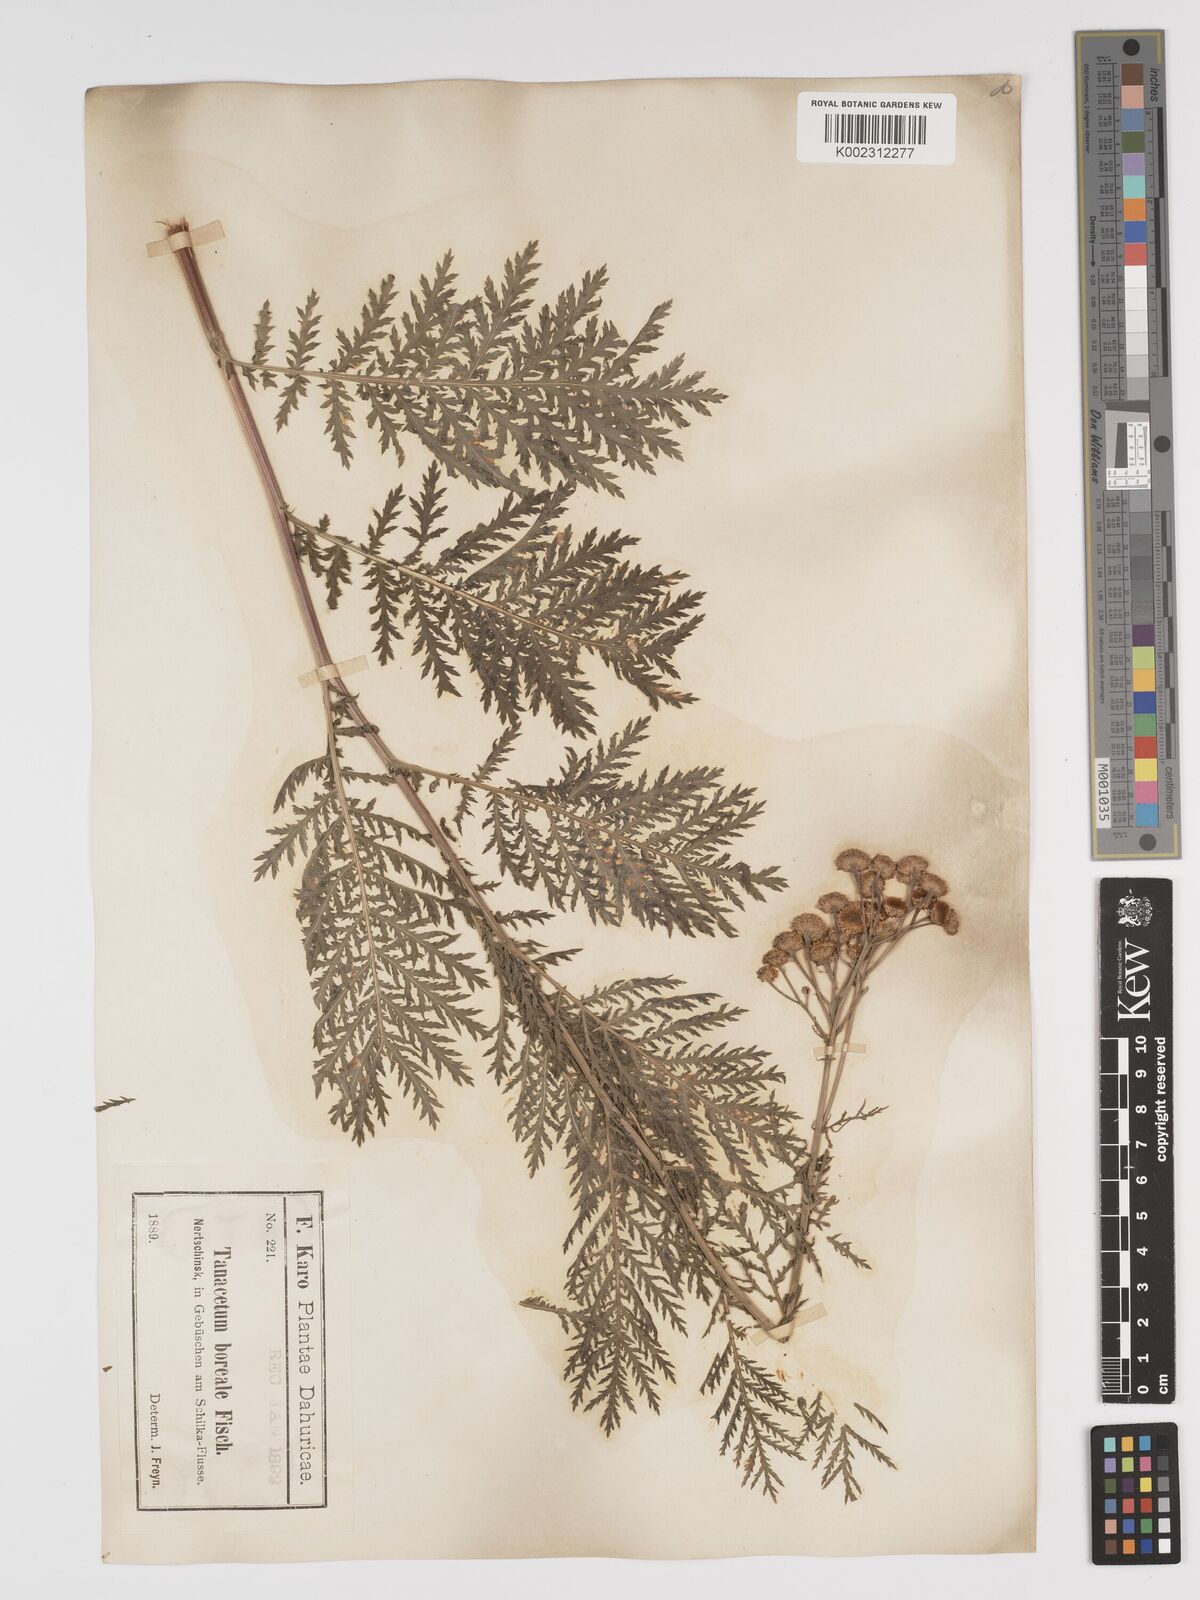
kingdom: Plantae
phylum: Tracheophyta
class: Magnoliopsida
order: Asterales
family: Asteraceae
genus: Tanacetum
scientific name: Tanacetum vulgare
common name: Common tansy
